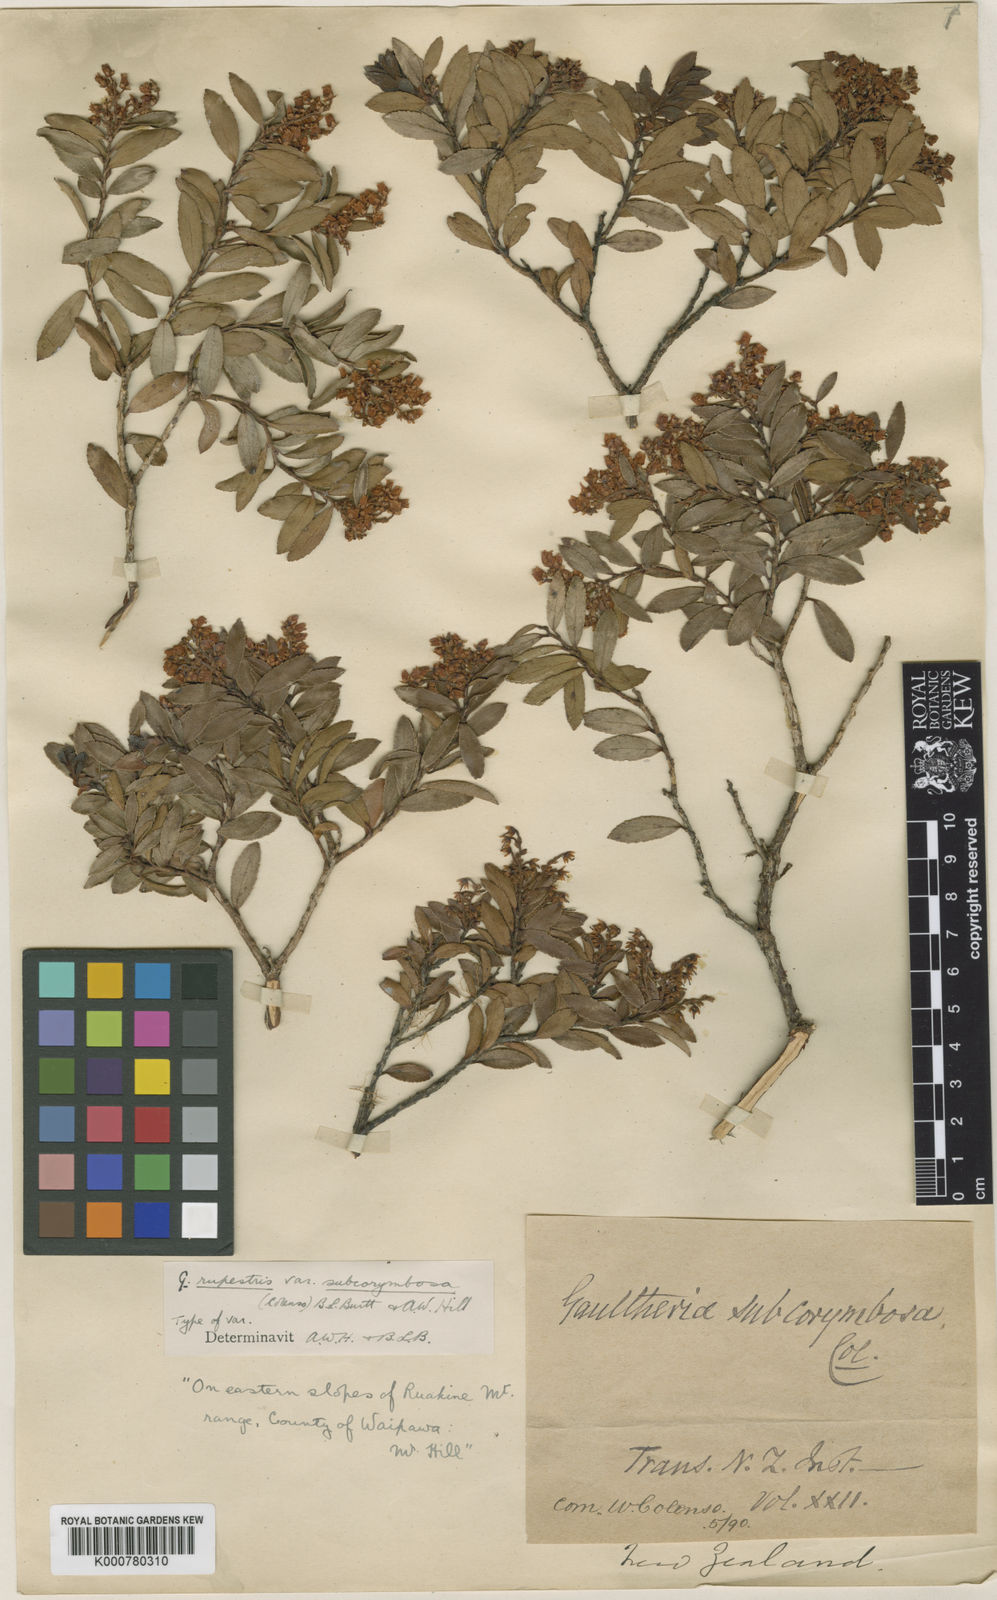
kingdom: Plantae
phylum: Tracheophyta
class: Magnoliopsida
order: Ericales
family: Ericaceae
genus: Gaultheria
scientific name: Gaultheria
